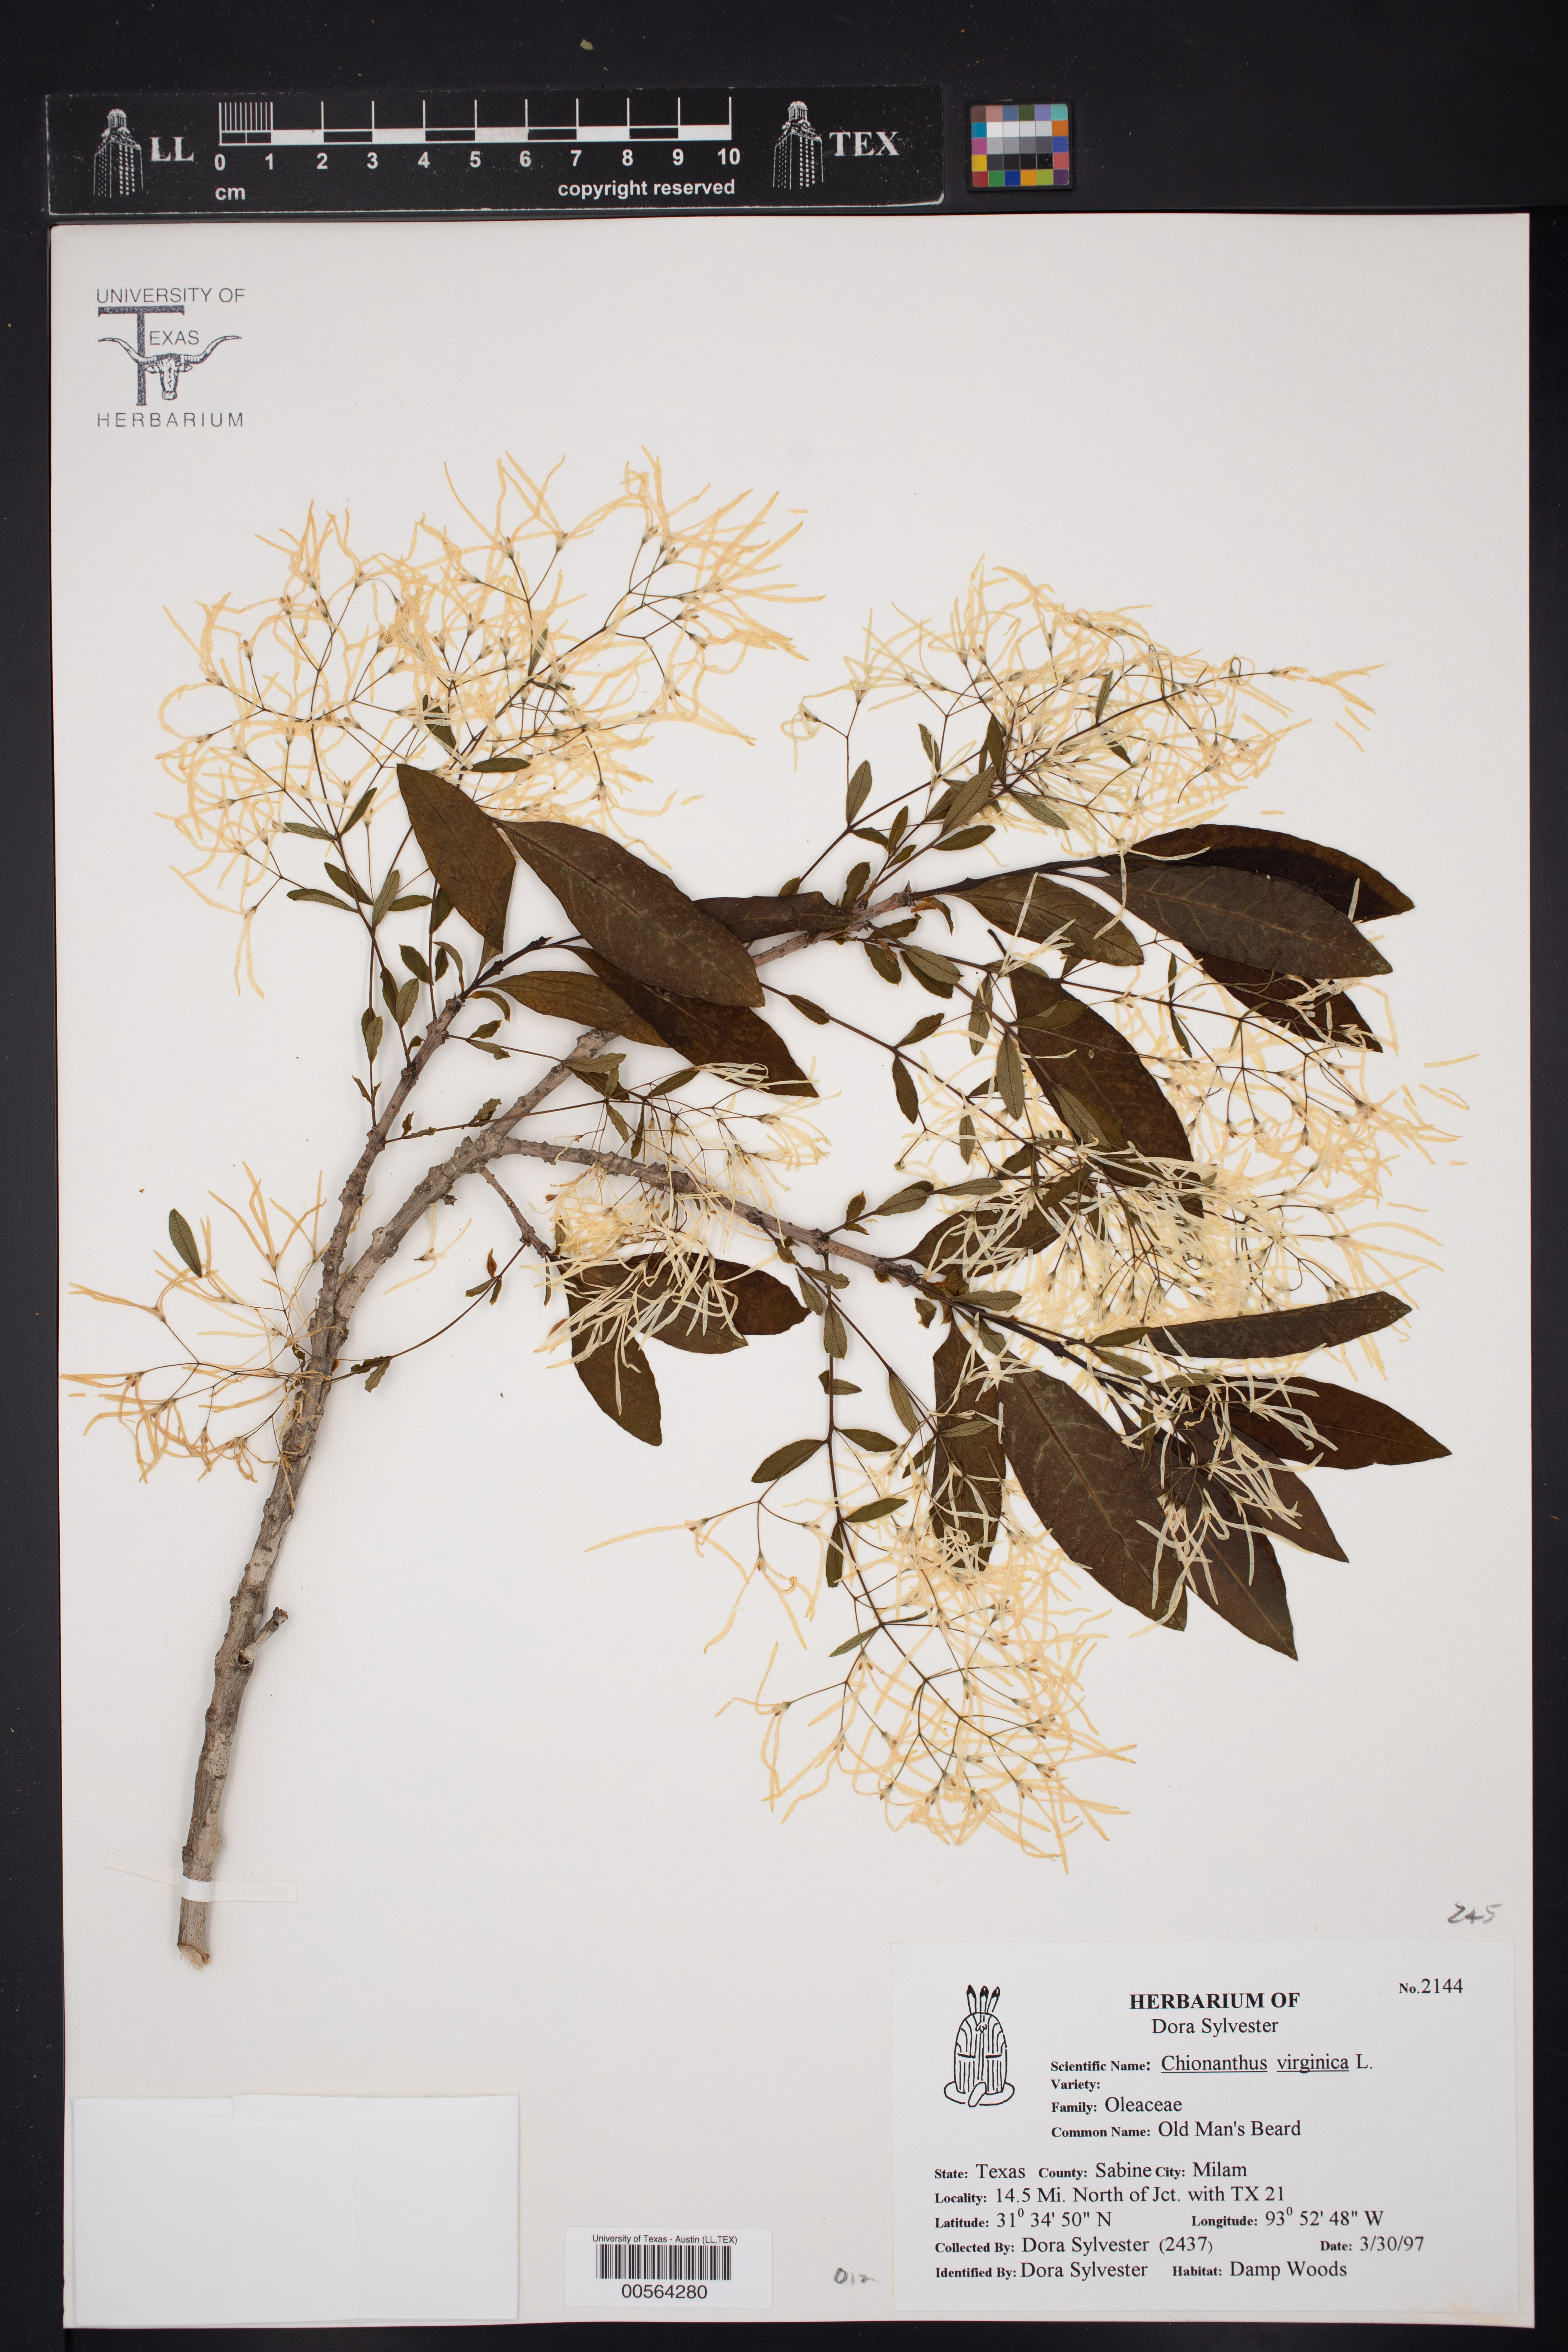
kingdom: Plantae
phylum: Tracheophyta
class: Magnoliopsida
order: Lamiales
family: Oleaceae
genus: Chionanthus
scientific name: Chionanthus virginicus
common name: American fringetree
